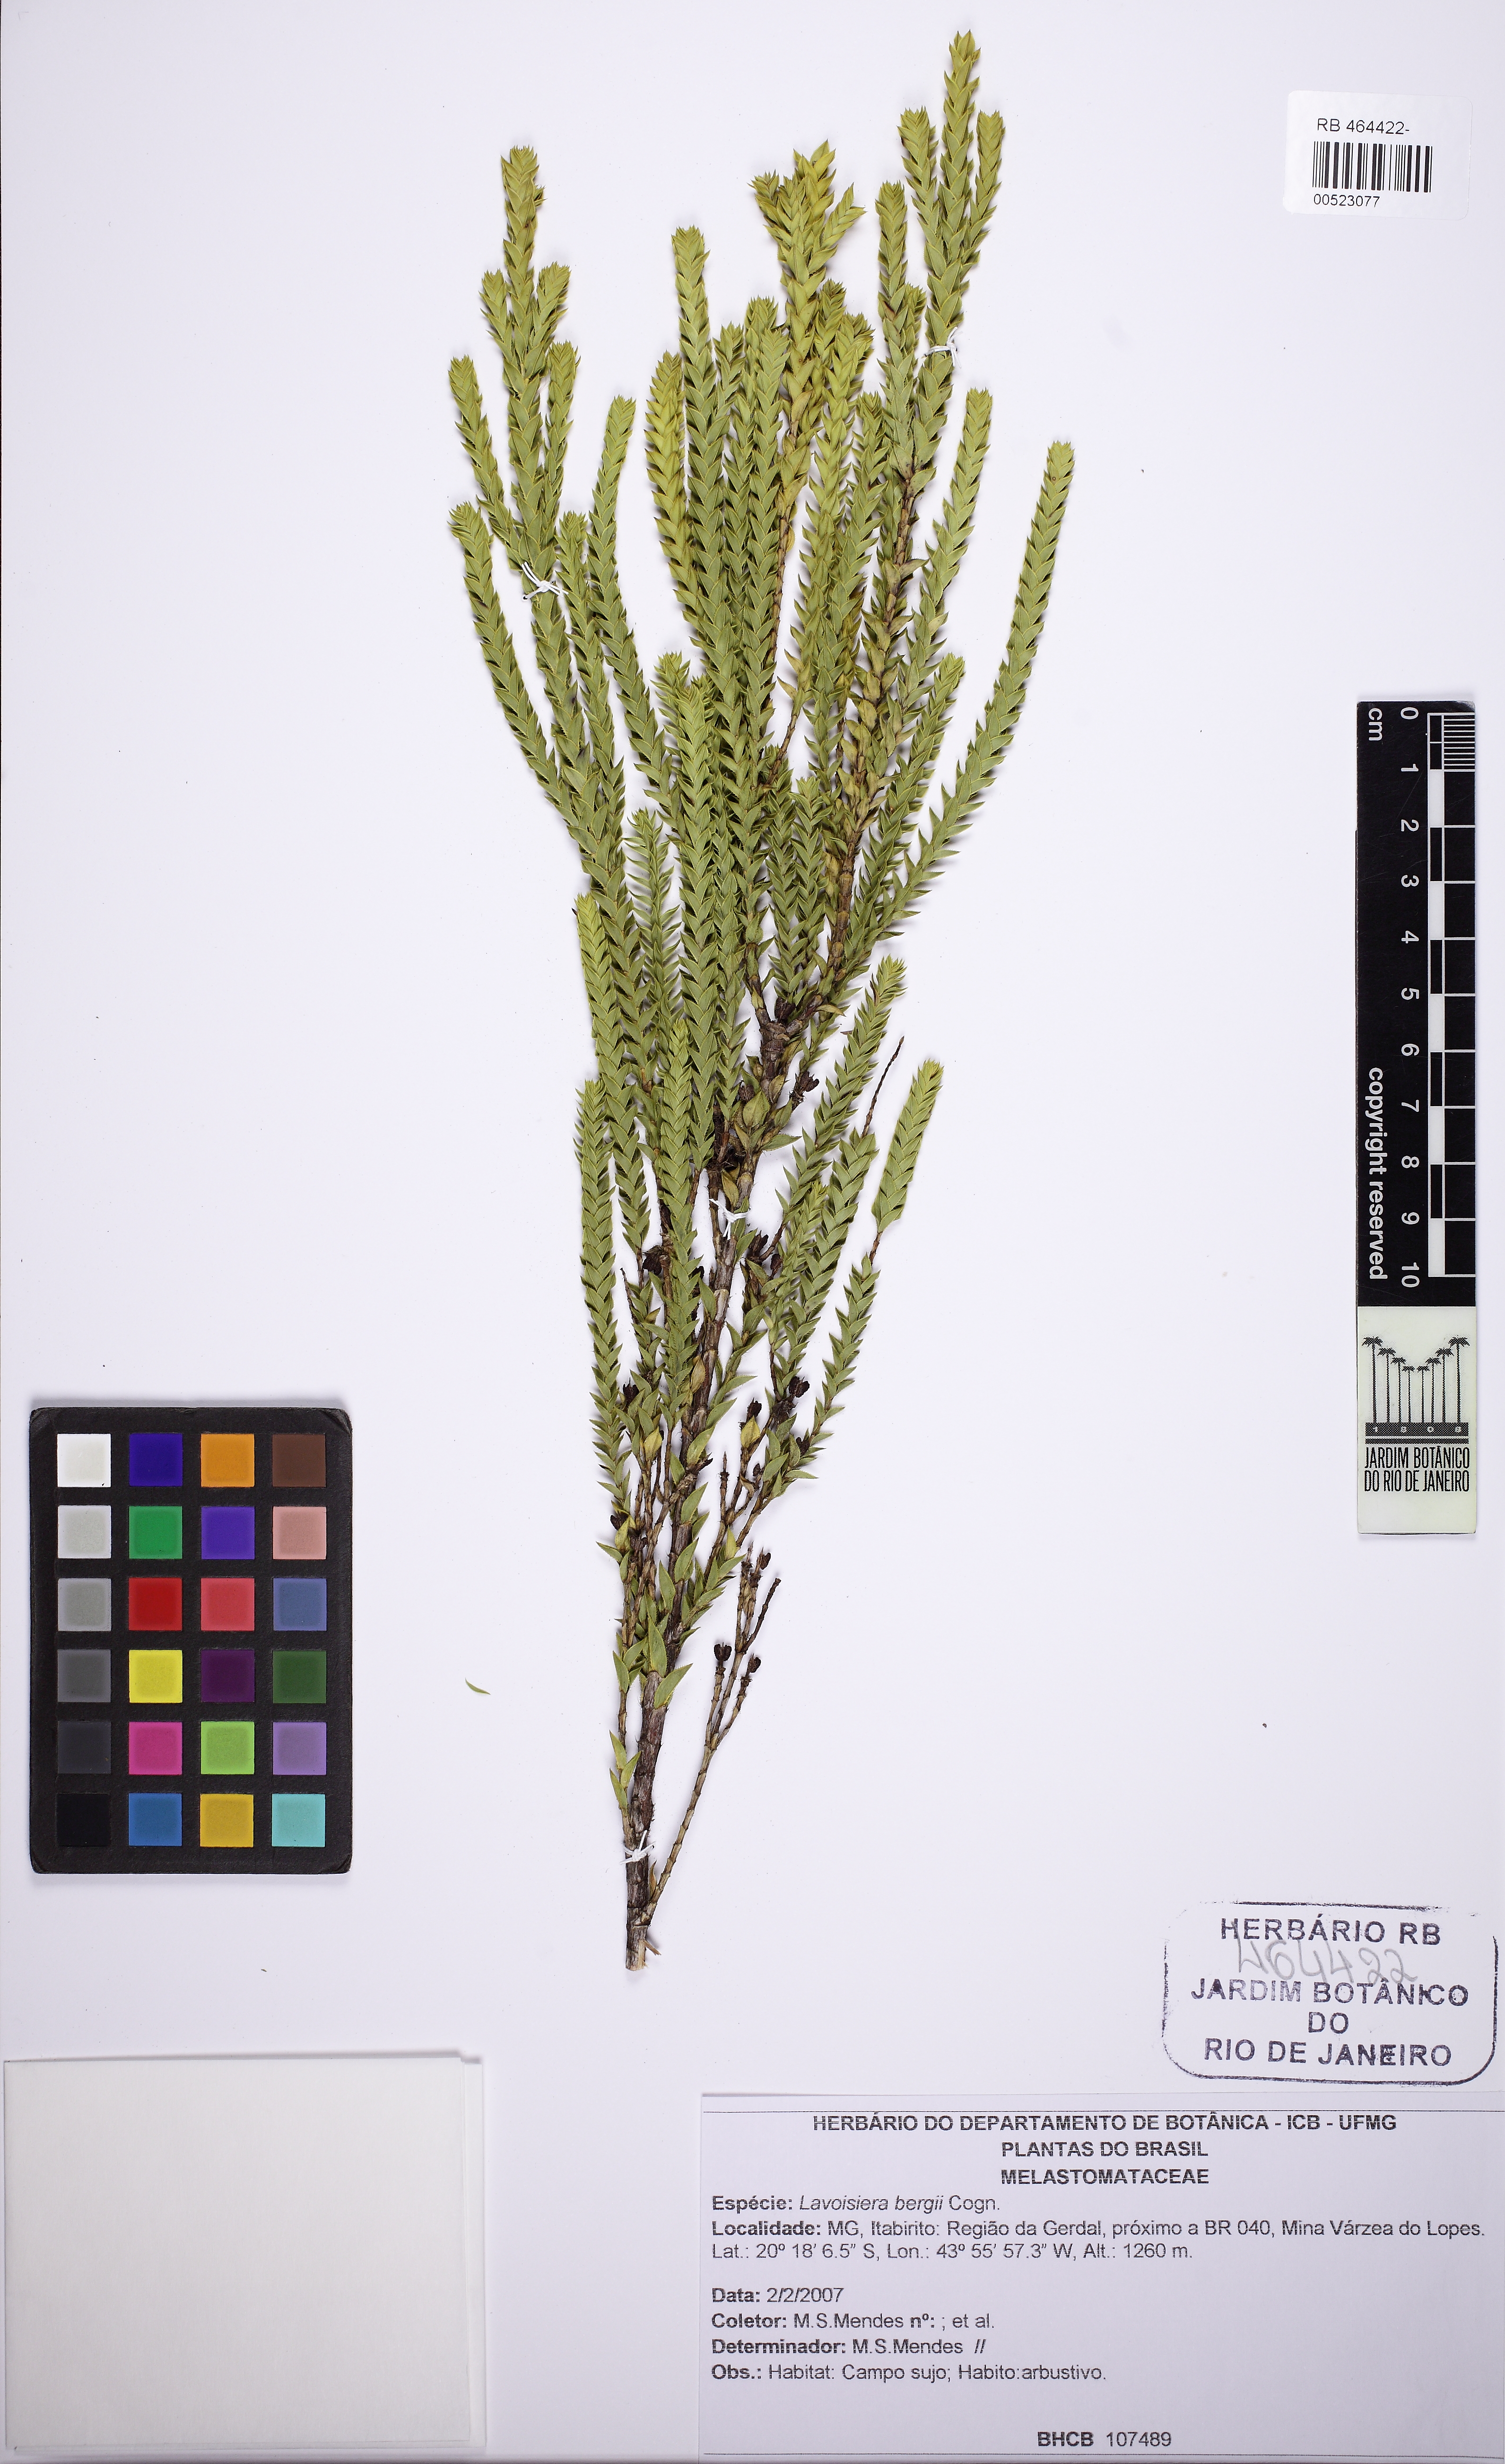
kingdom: Plantae
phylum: Tracheophyta
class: Magnoliopsida
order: Myrtales
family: Melastomataceae
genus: Microlicia
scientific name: Microlicia cataphracta
